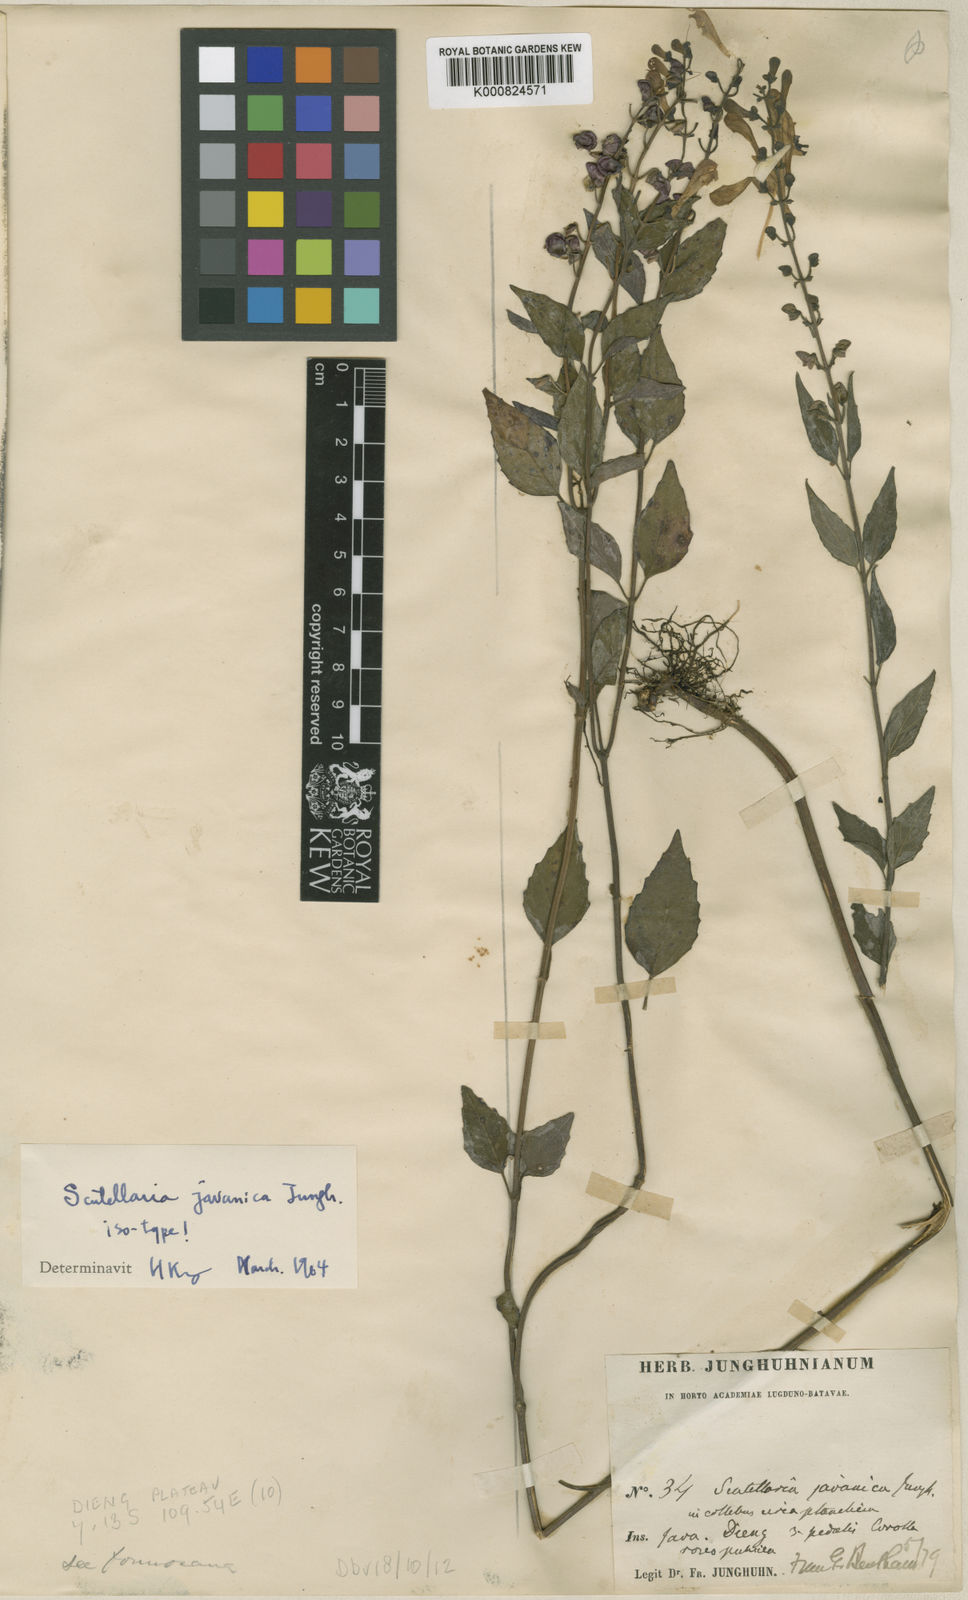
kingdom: Plantae
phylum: Tracheophyta
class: Magnoliopsida
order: Lamiales
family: Lamiaceae
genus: Scutellaria
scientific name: Scutellaria javanica
